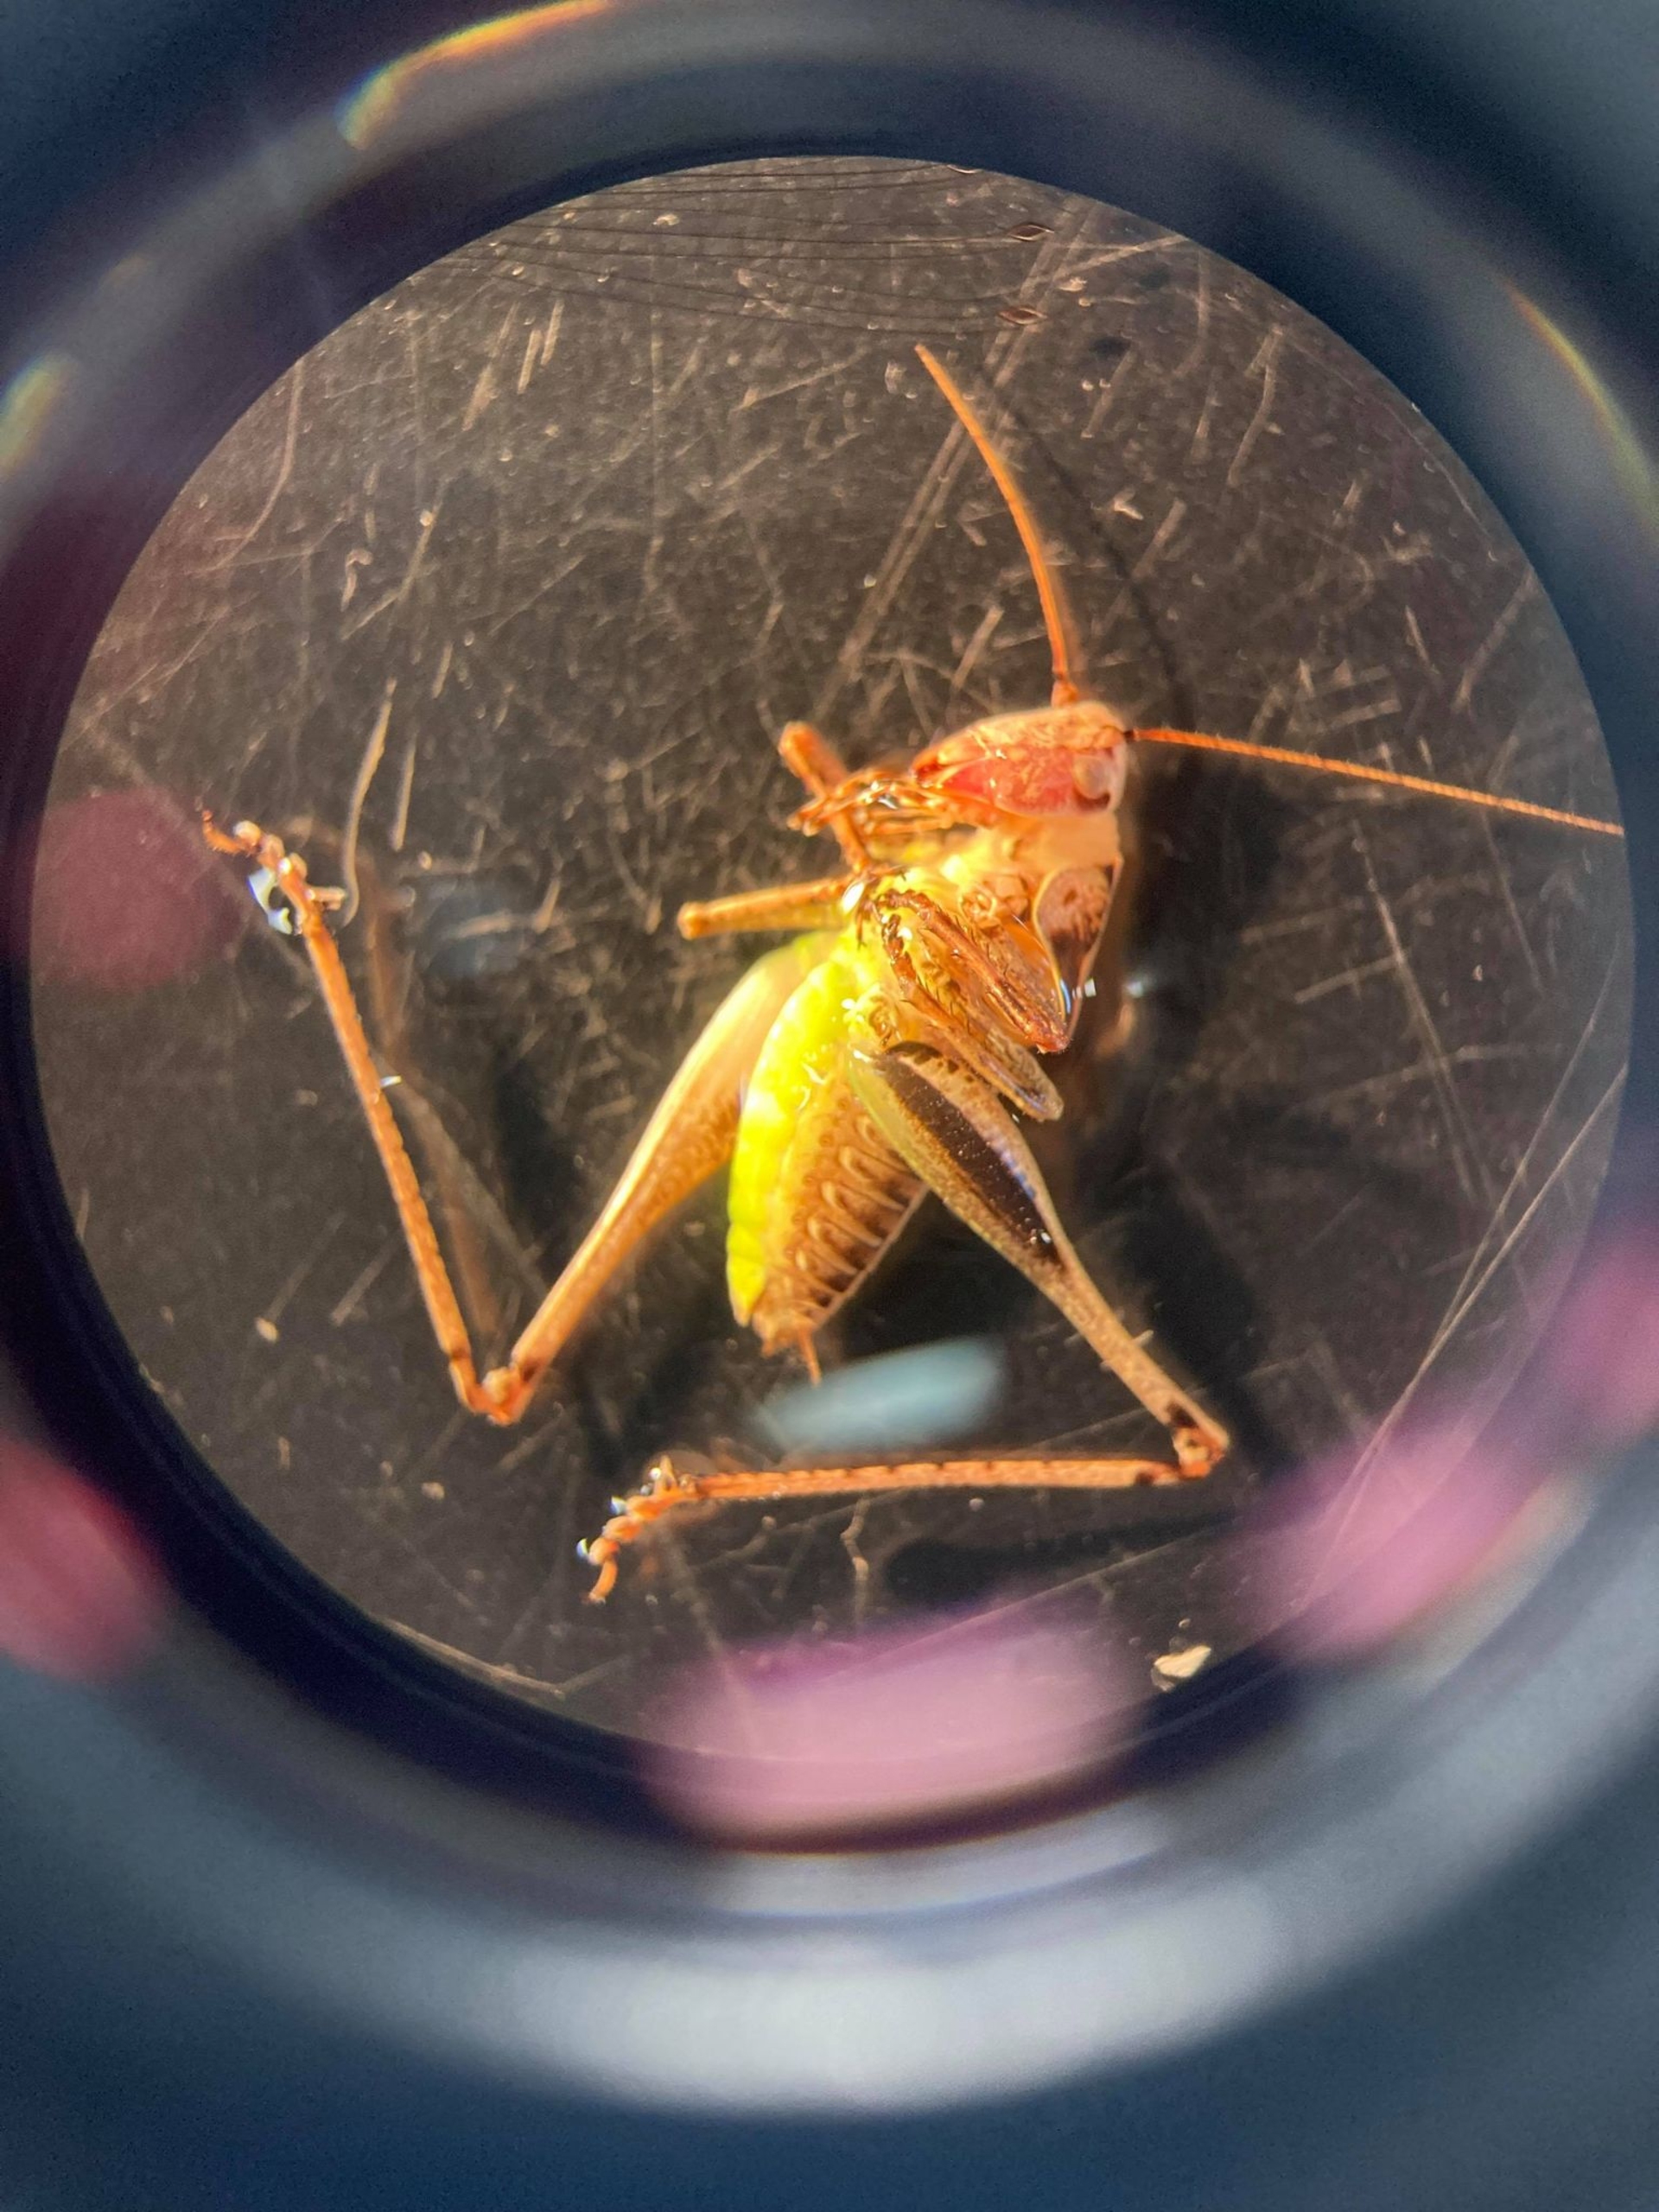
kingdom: Animalia
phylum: Arthropoda
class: Insecta
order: Orthoptera
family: Tettigoniidae
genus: Pholidoptera
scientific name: Pholidoptera griseoaptera
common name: Buskgræshoppe
